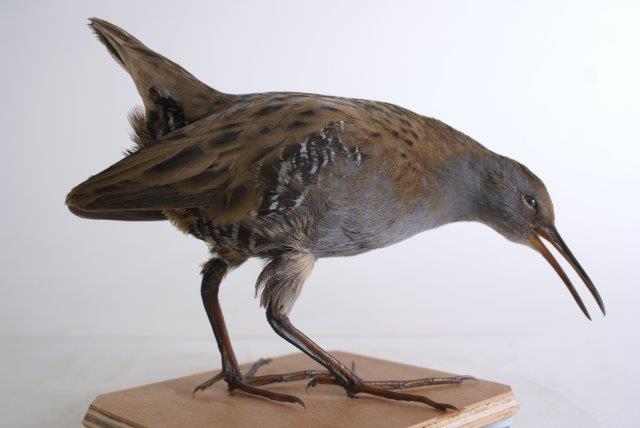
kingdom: Animalia
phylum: Chordata
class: Aves
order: Gruiformes
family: Rallidae
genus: Rallus
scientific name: Rallus aquaticus
